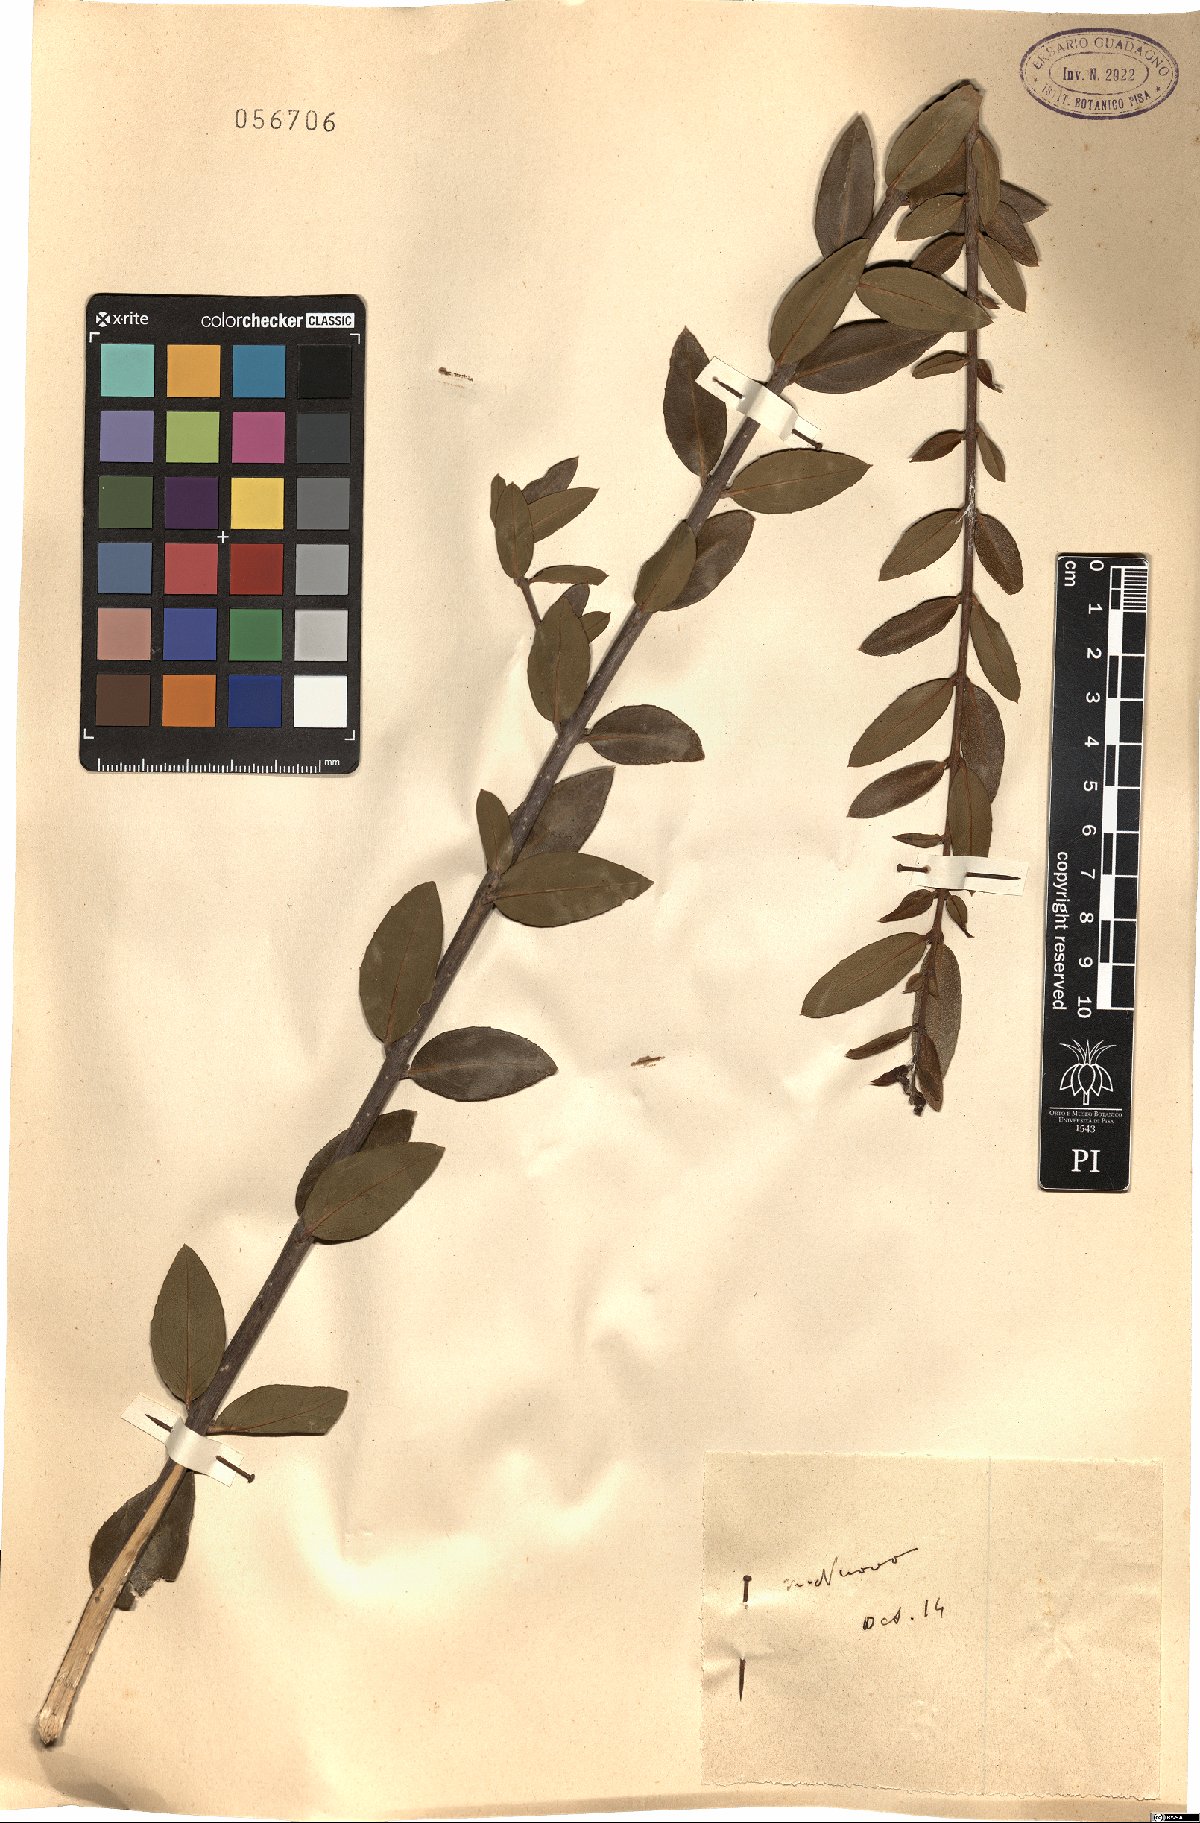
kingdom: Plantae
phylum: Tracheophyta
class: Magnoliopsida
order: Lamiales
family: Oleaceae
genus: Phillyrea
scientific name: Phillyrea
